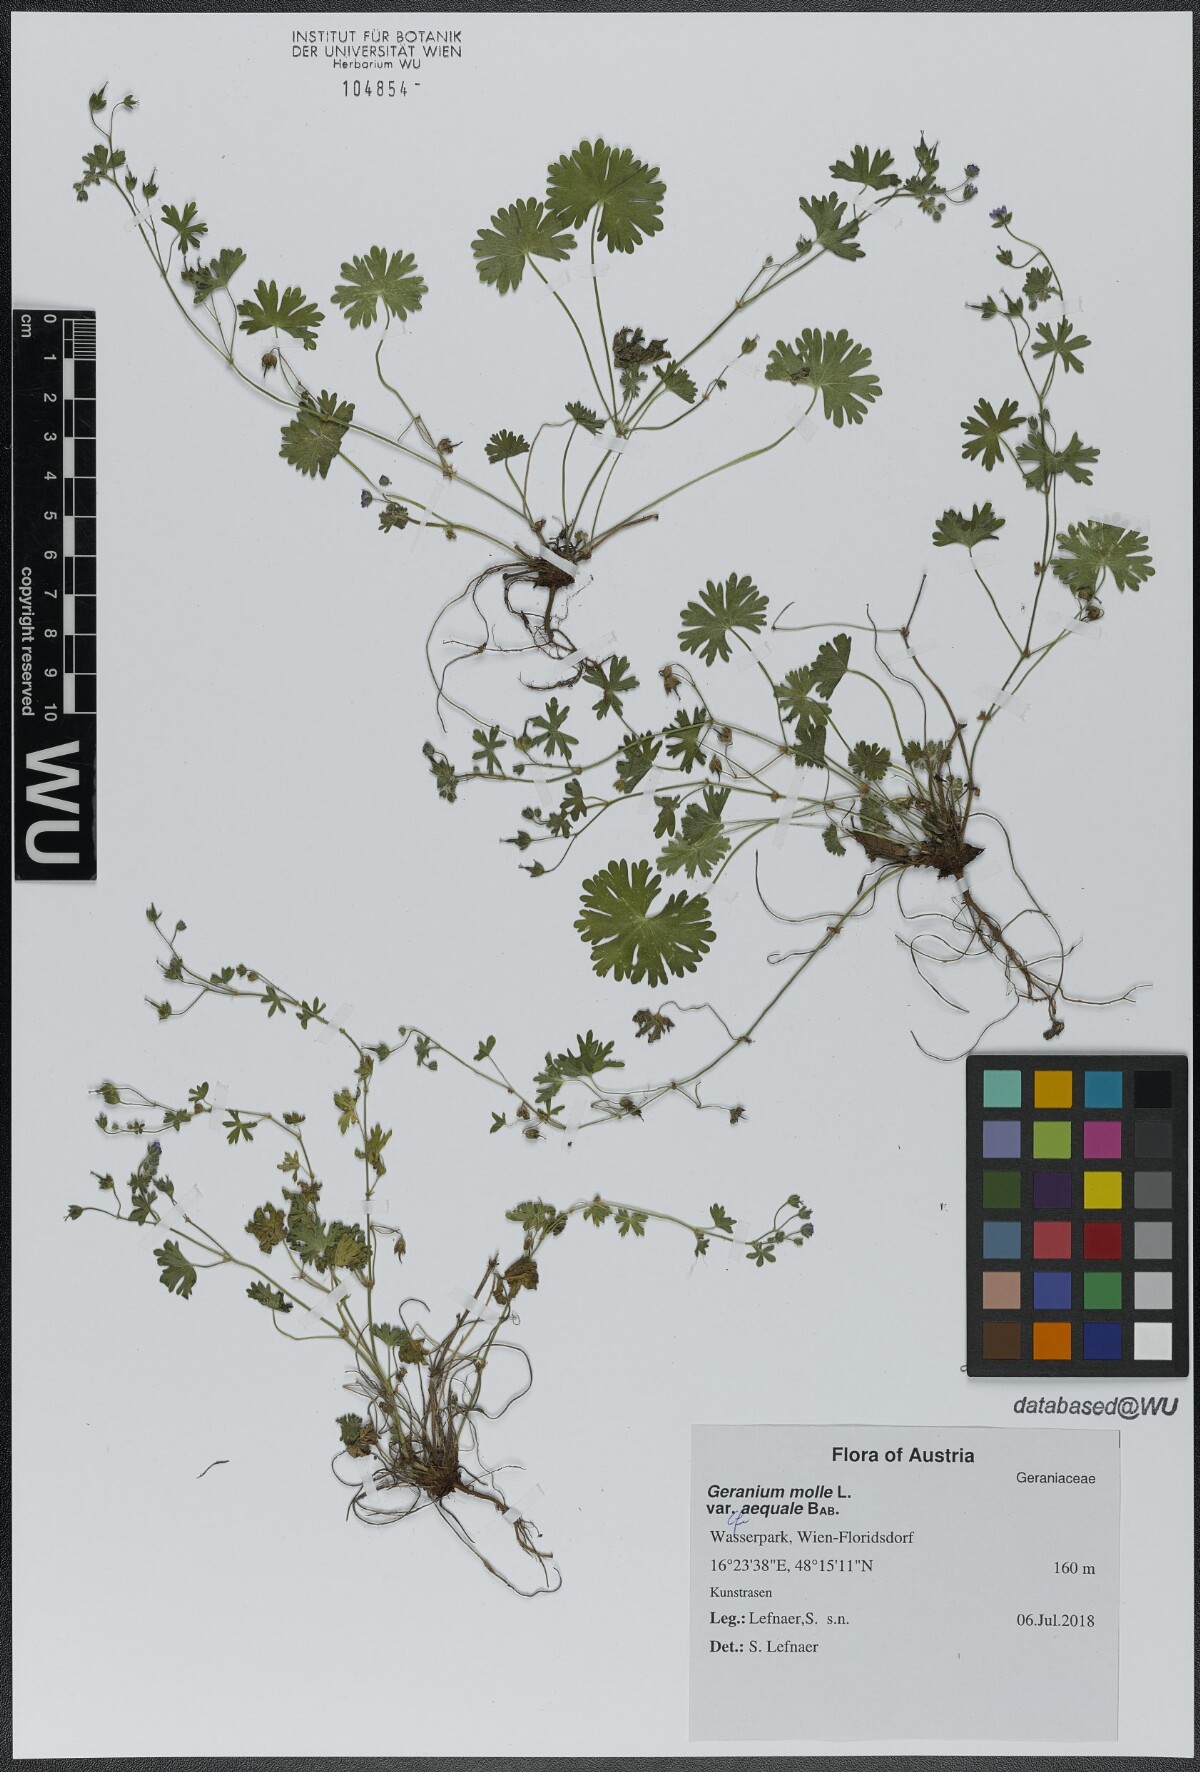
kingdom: Plantae
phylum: Tracheophyta
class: Magnoliopsida
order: Geraniales
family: Geraniaceae
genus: Geranium
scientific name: Geranium aequale
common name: Geranium
